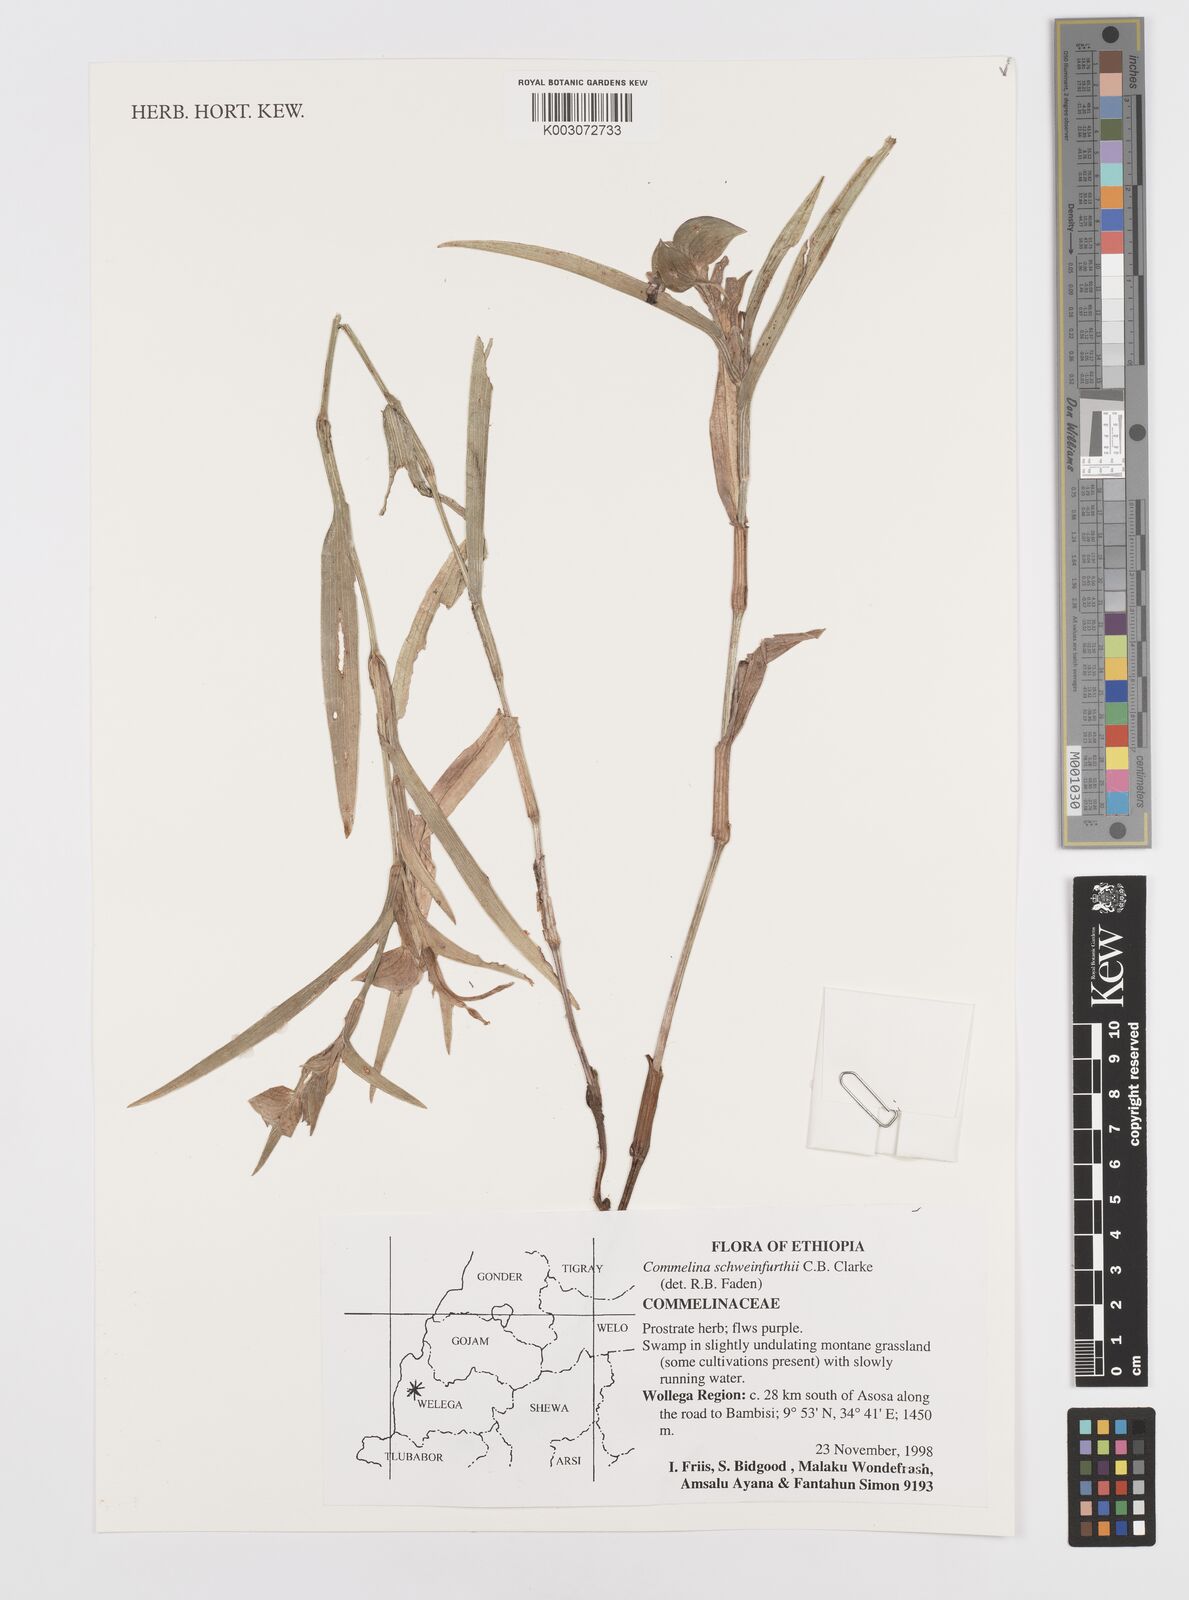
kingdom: Plantae
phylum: Tracheophyta
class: Liliopsida
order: Commelinales
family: Commelinaceae
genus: Commelina
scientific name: Commelina schweinfurthii
